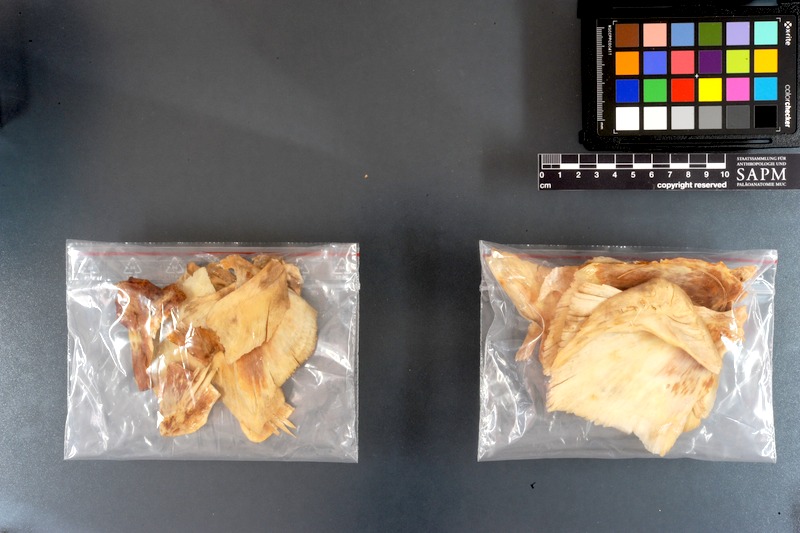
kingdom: Animalia
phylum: Chordata
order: Perciformes
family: Istiophoridae
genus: Istiophorus
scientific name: Istiophorus platypterus
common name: Sailfish
